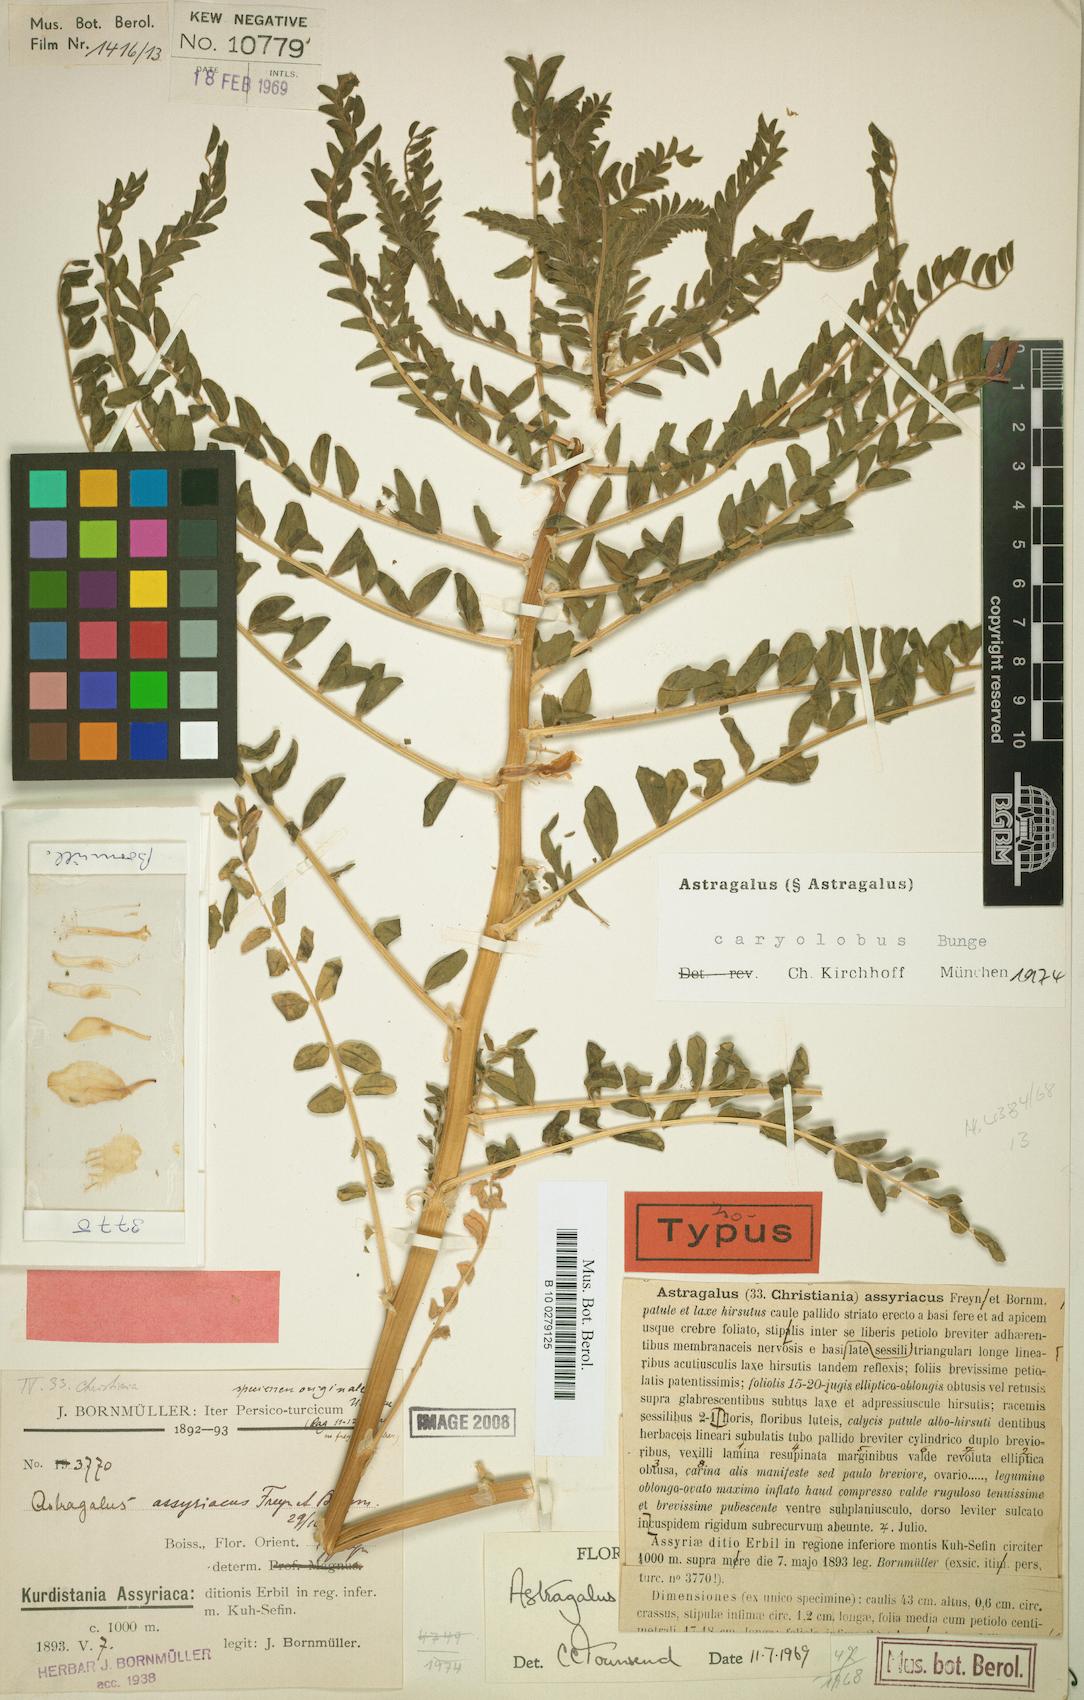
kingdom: Plantae
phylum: Tracheophyta
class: Magnoliopsida
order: Fabales
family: Fabaceae
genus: Astragalus
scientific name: Astragalus caryolobus
